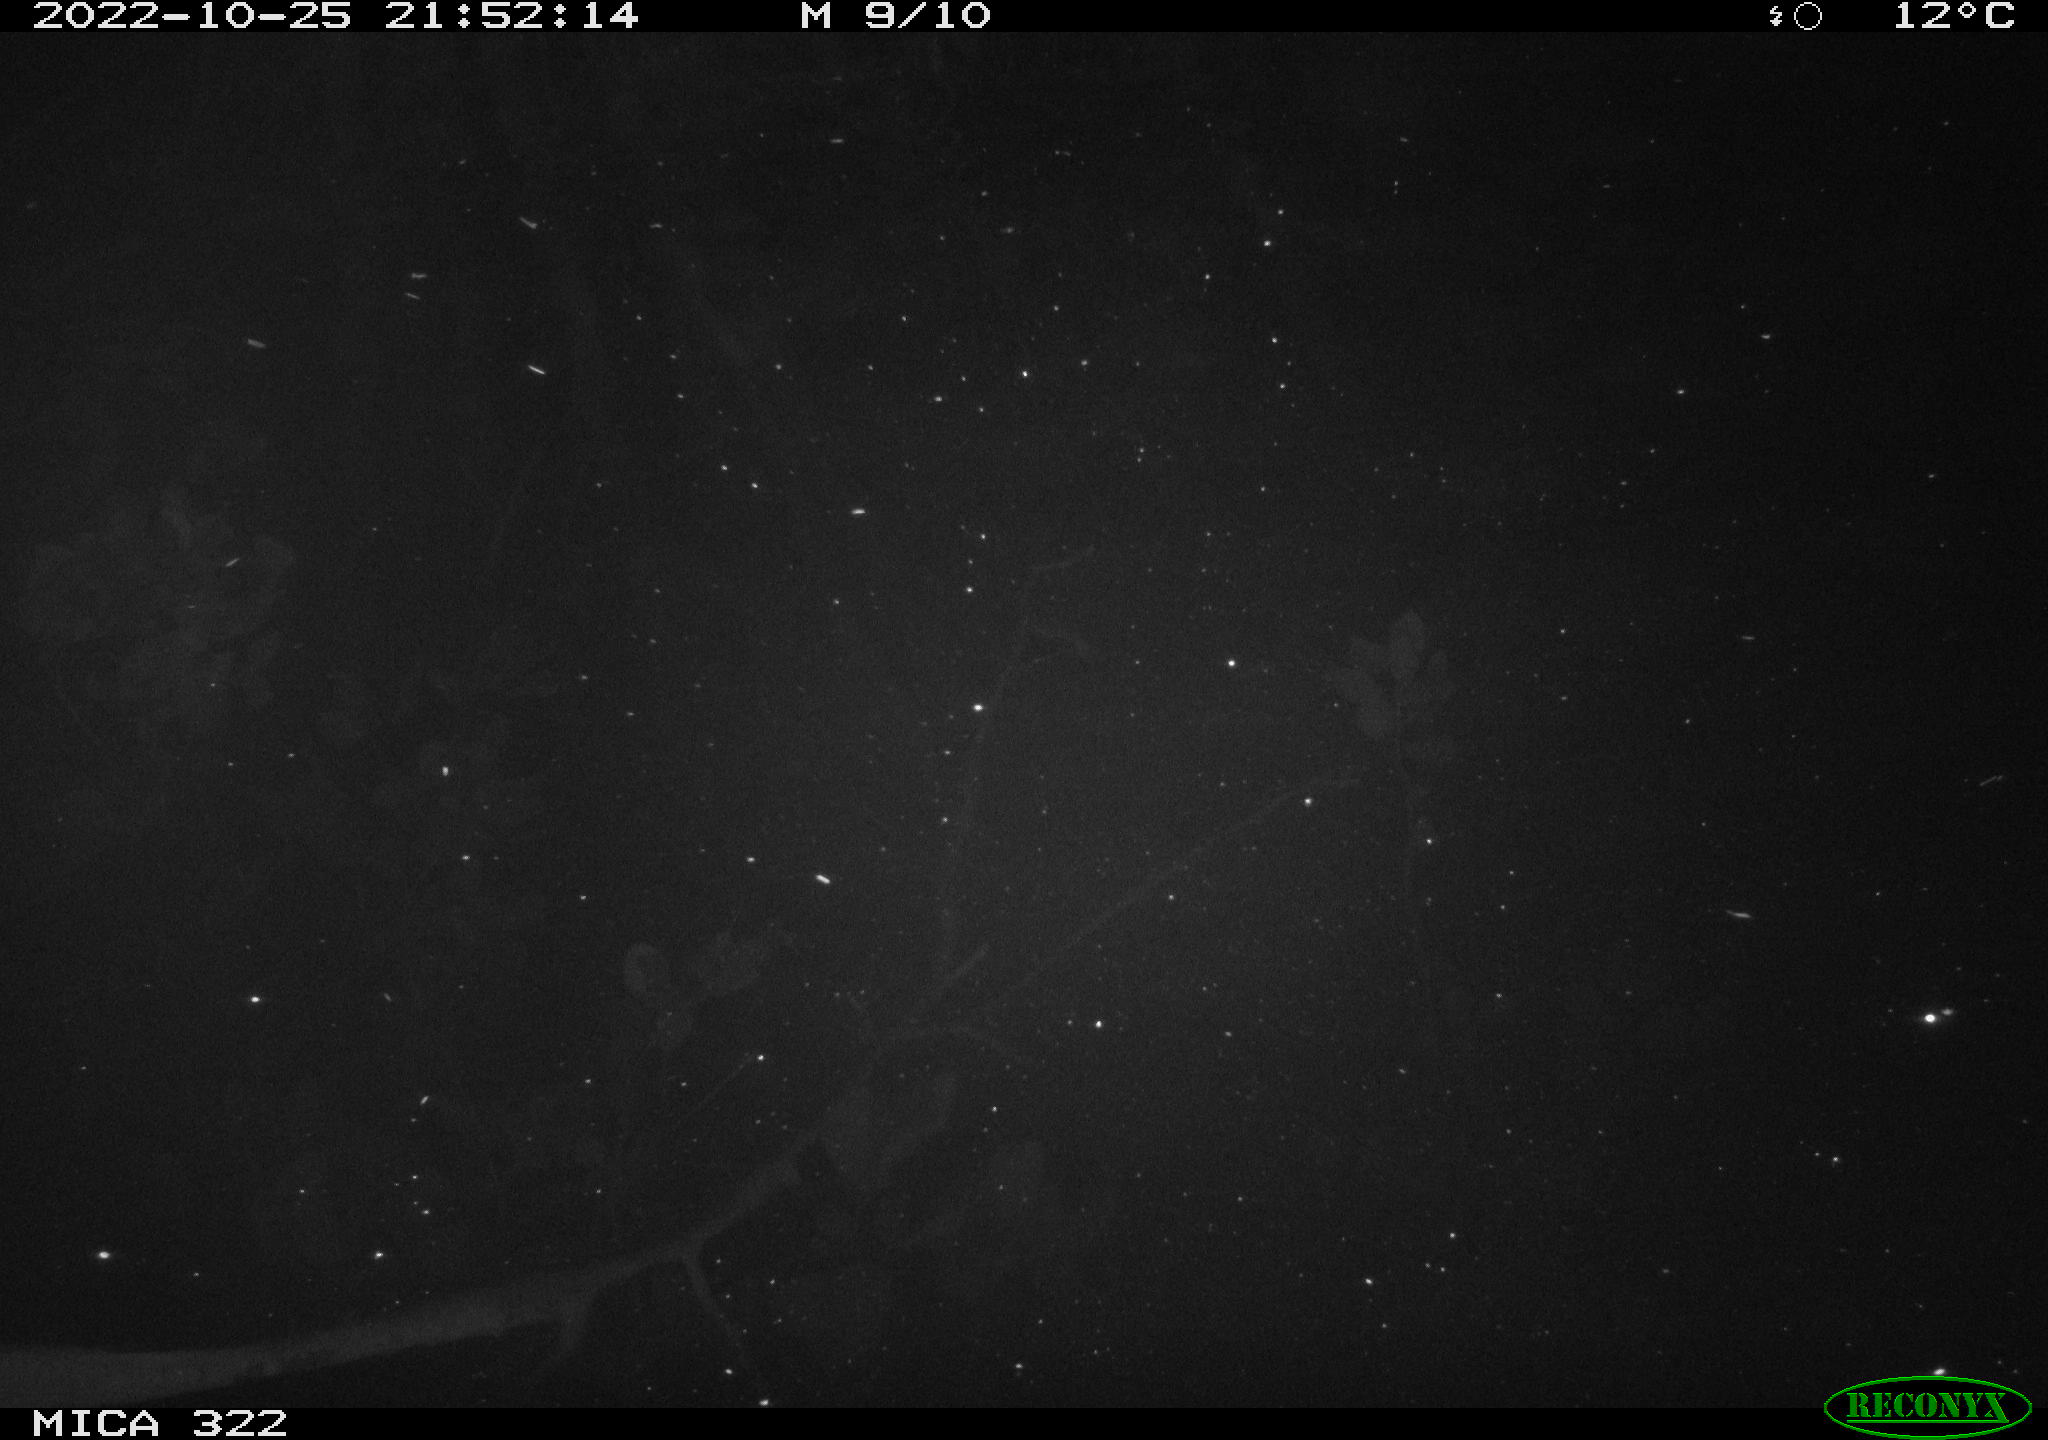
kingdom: Animalia
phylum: Chordata
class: Mammalia
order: Rodentia
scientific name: Rodentia
